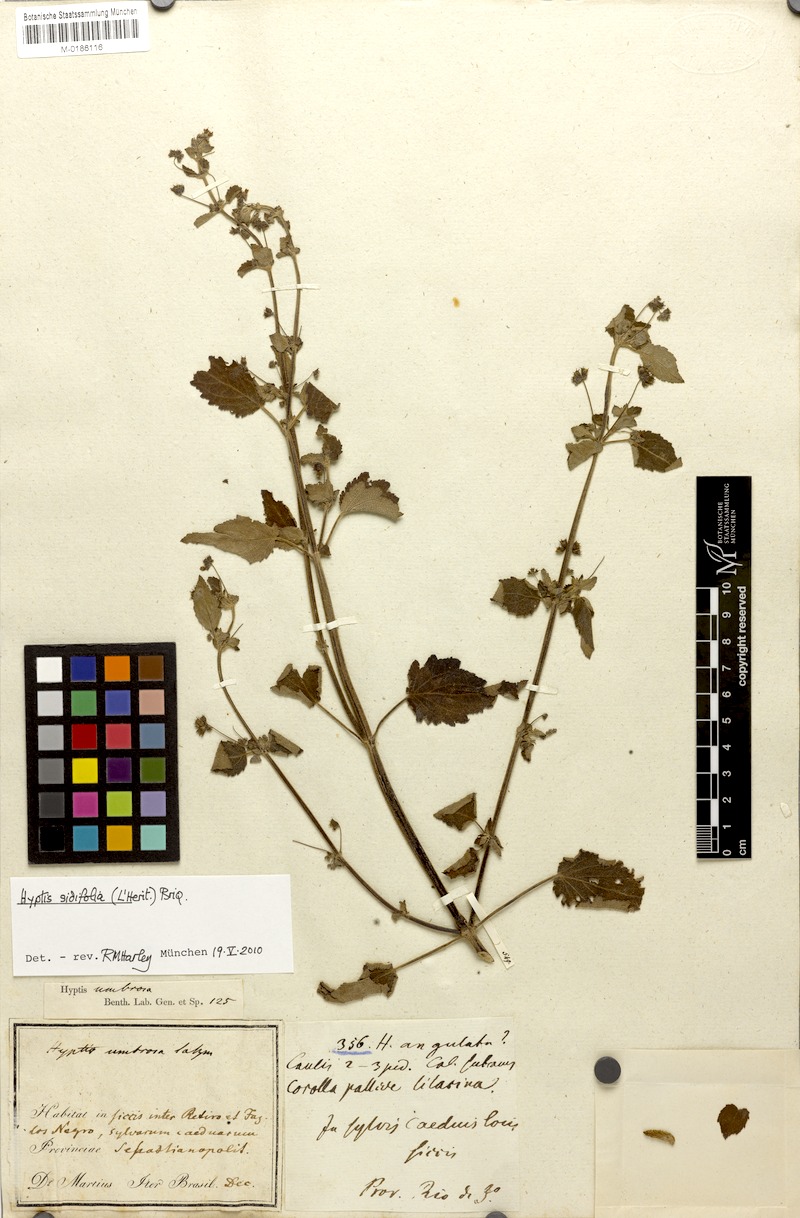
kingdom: Plantae
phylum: Tracheophyta
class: Magnoliopsida
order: Lamiales
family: Lamiaceae
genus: Mesosphaerum
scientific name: Mesosphaerum sidifolium
